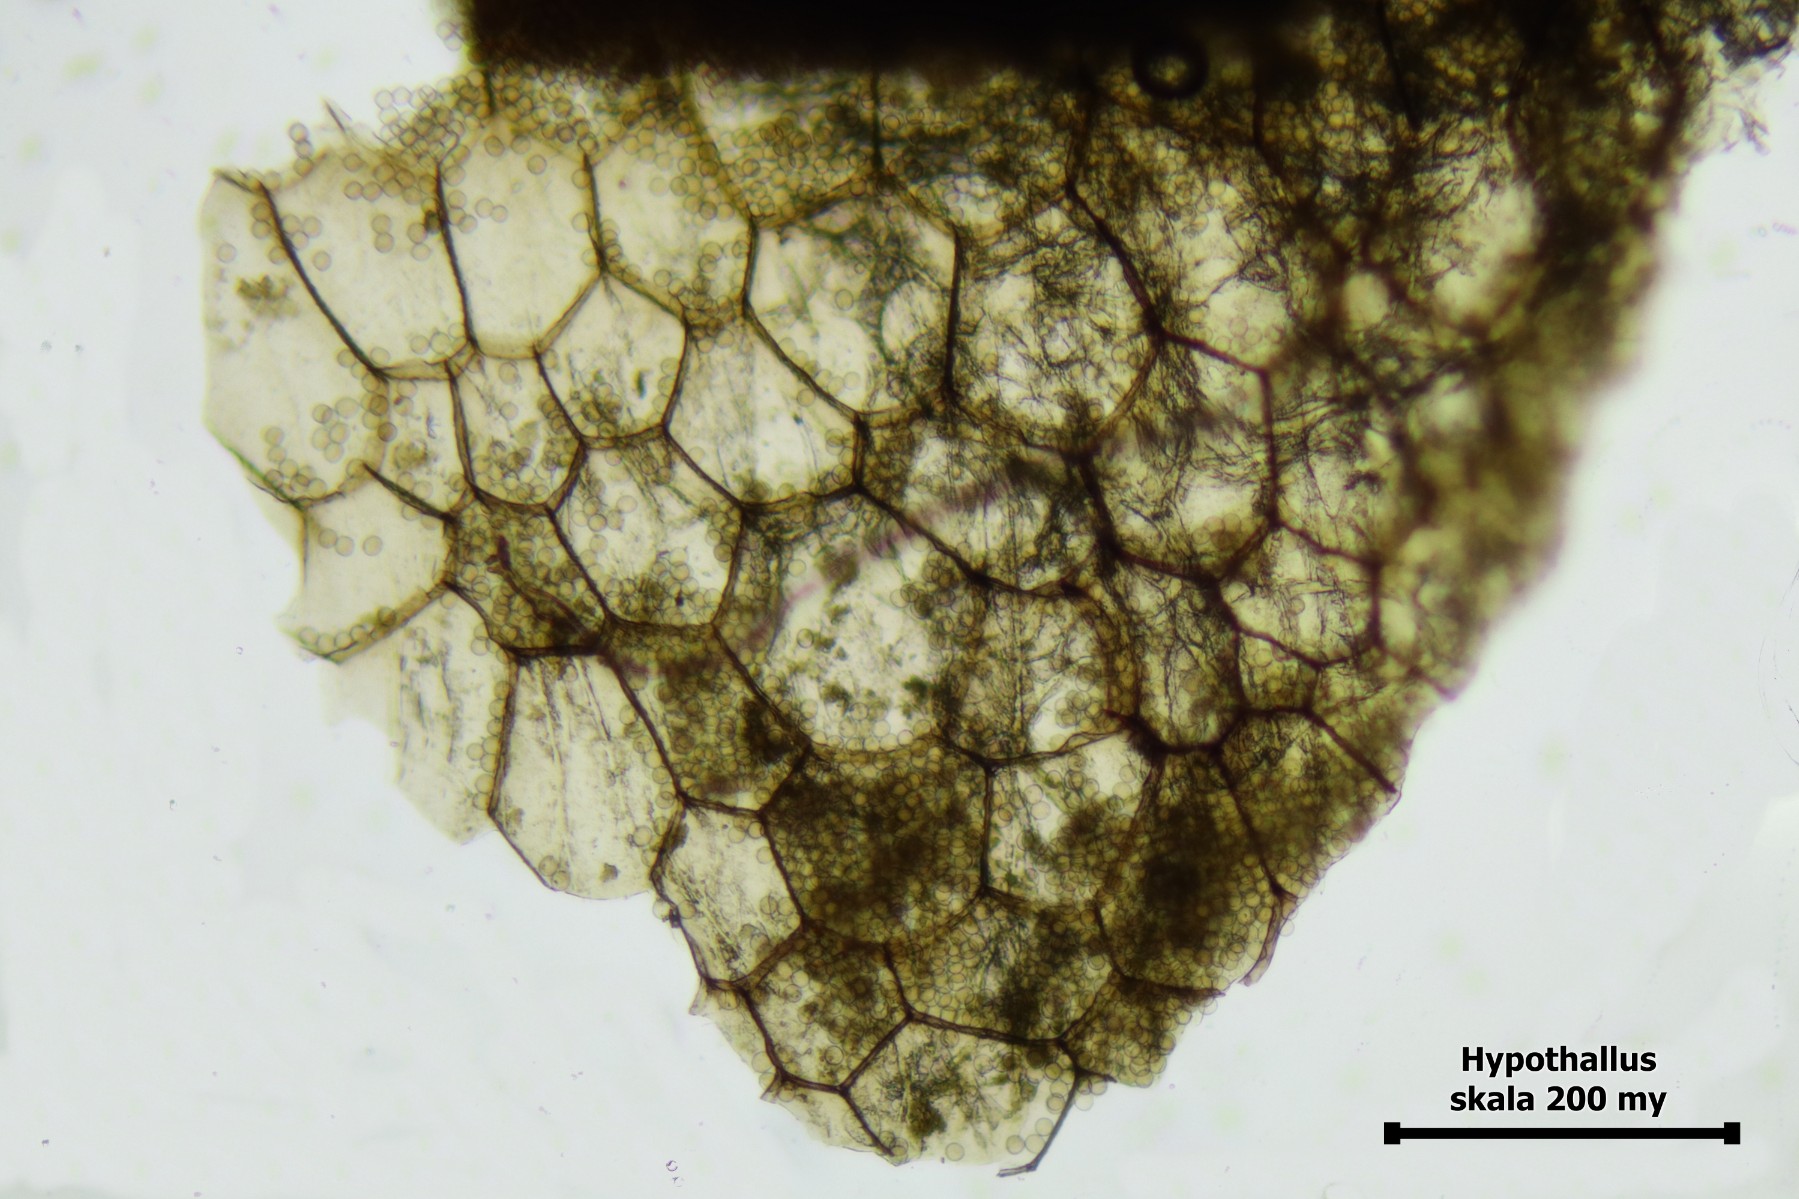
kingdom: Protozoa
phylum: Mycetozoa
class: Myxomycetes
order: Trichiales
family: Dictydiaethaliaceae
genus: Dictydiaethalium
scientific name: Dictydiaethalium plumbeum
